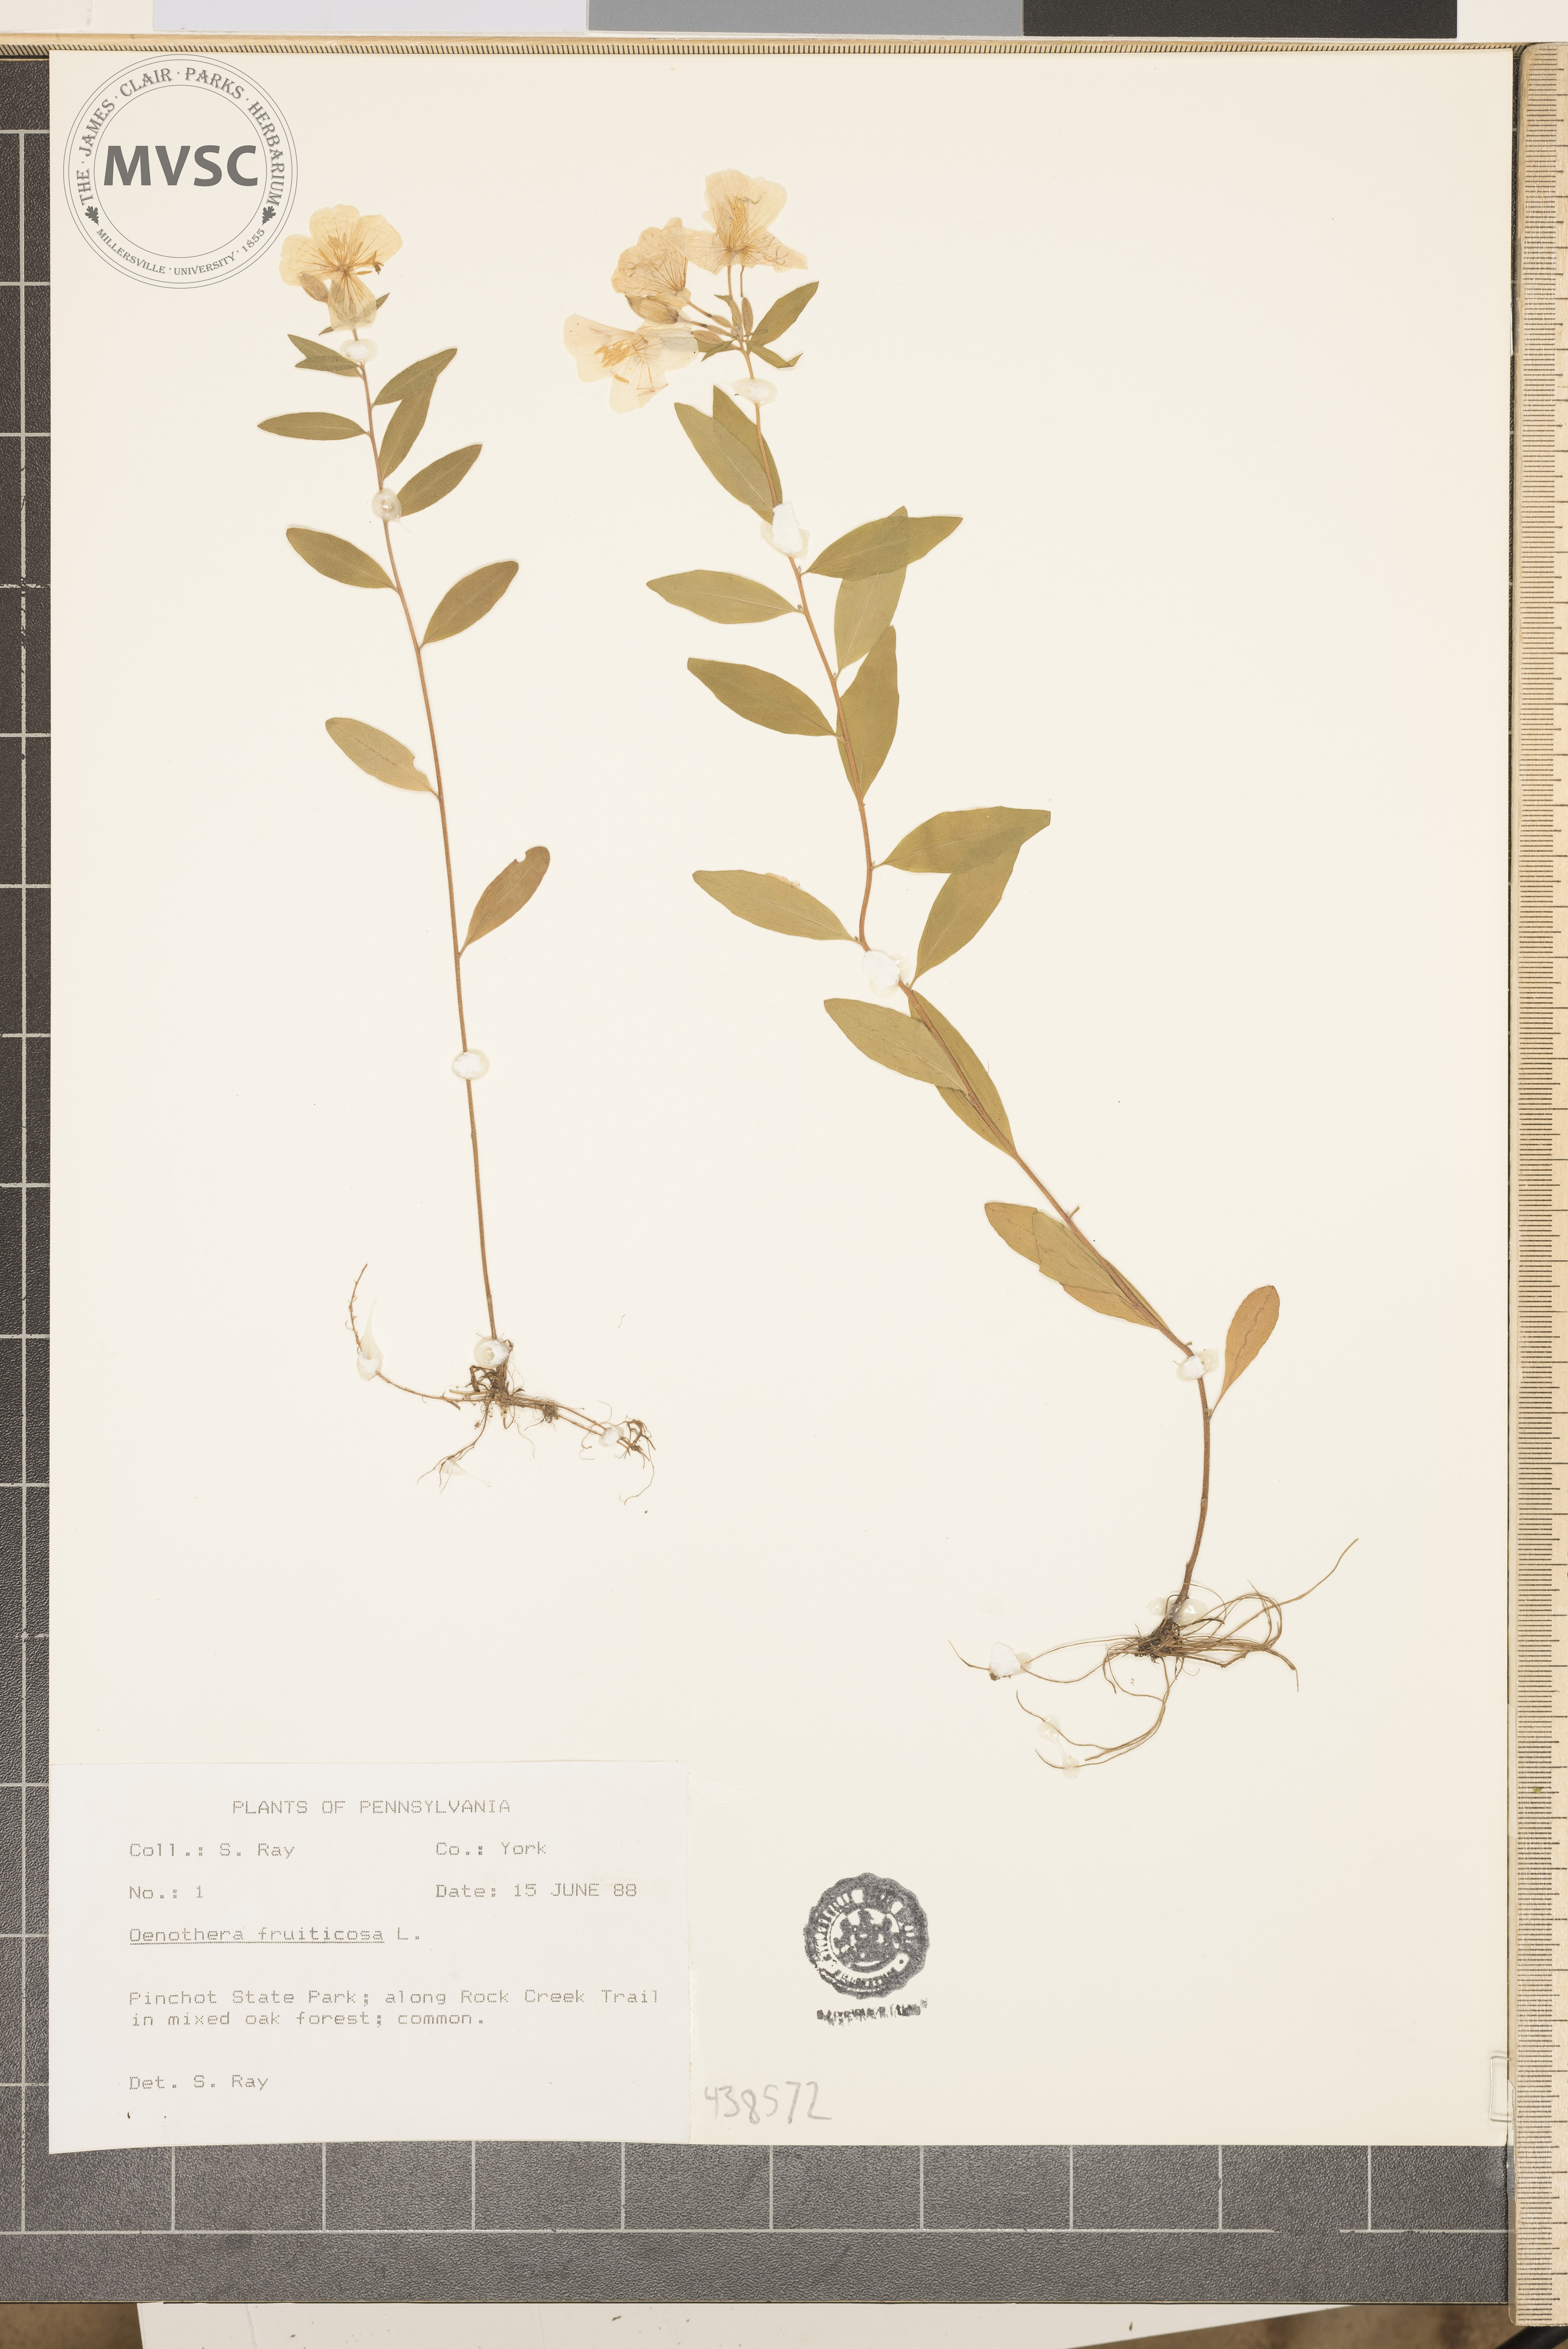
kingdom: Plantae
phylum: Tracheophyta
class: Magnoliopsida
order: Myrtales
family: Onagraceae
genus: Oenothera
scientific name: Oenothera fruticosa
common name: Southern sundrops
